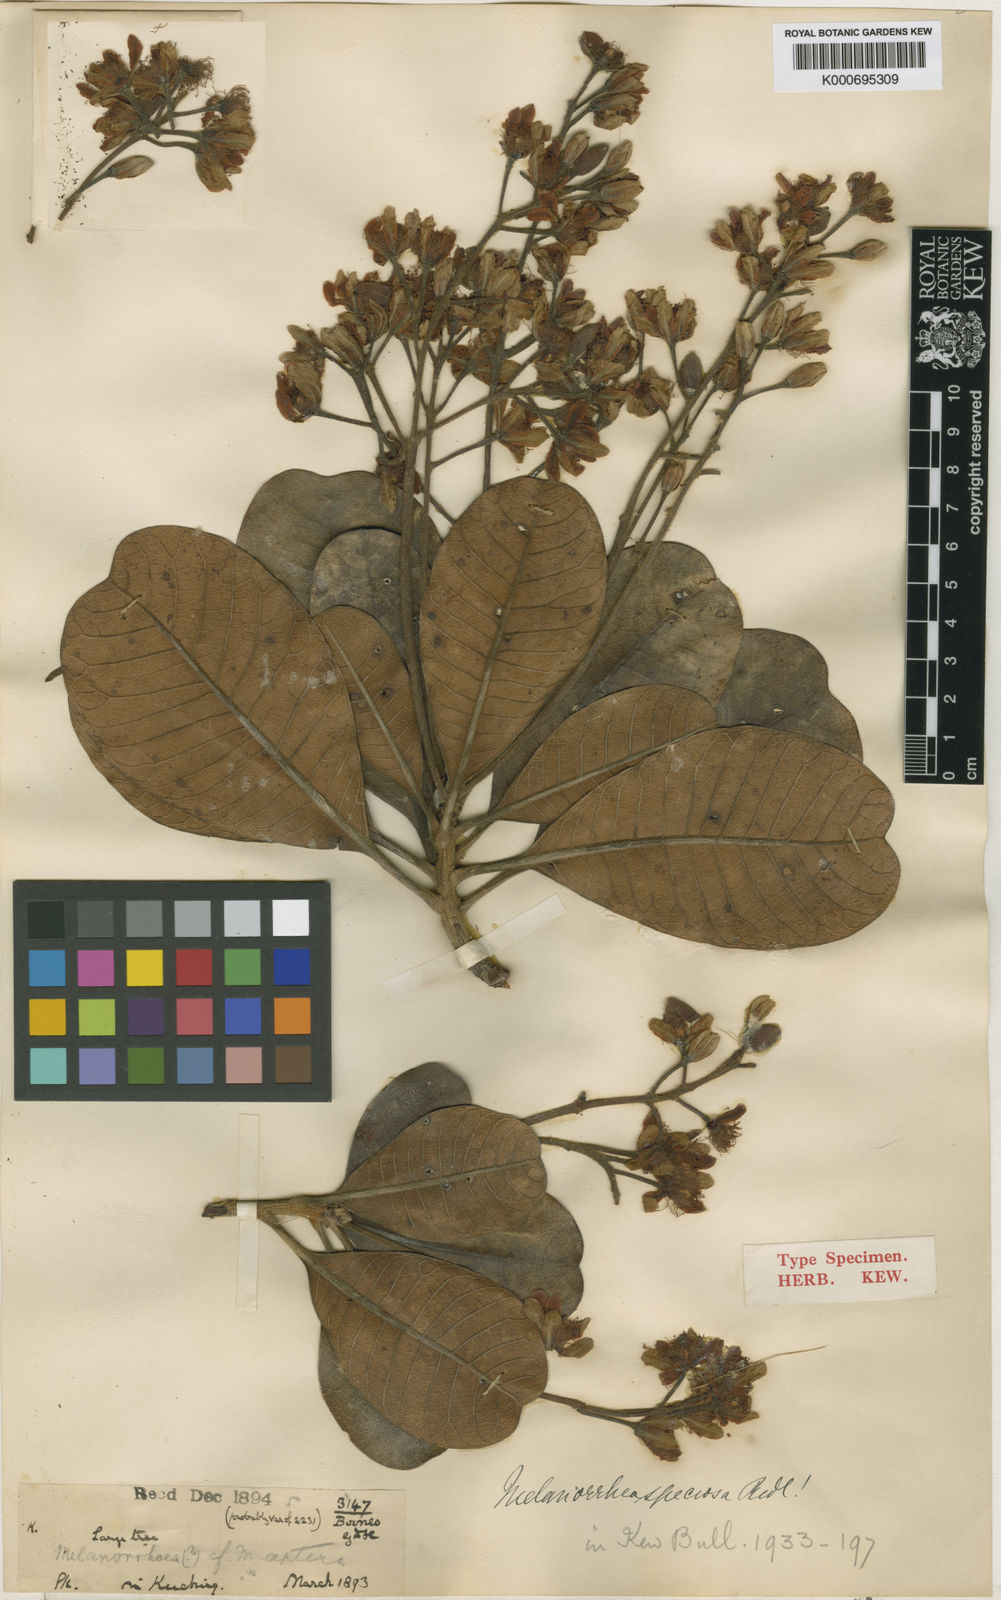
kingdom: Plantae
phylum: Tracheophyta
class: Magnoliopsida
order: Sapindales
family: Anacardiaceae
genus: Gluta
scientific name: Gluta speciosa
